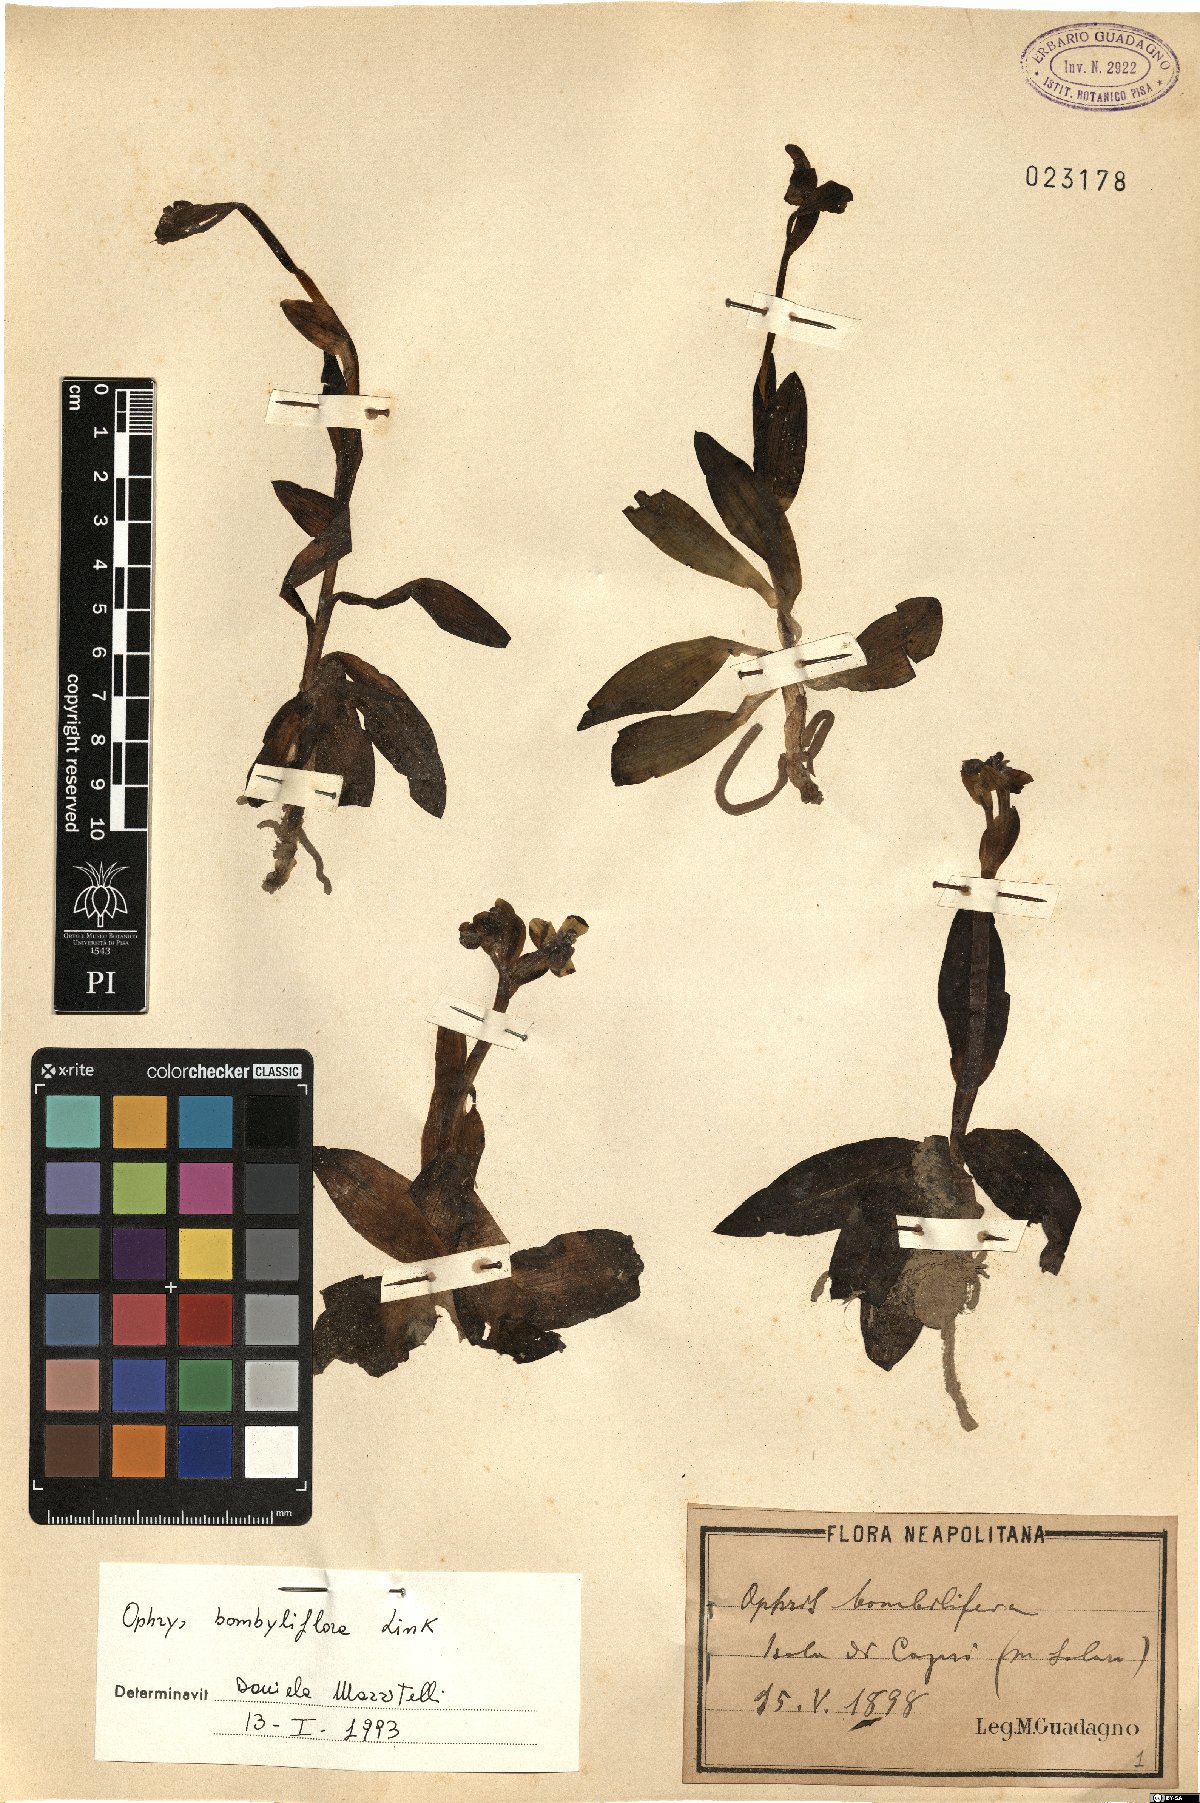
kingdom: Plantae
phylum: Tracheophyta
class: Liliopsida
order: Asparagales
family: Orchidaceae
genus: Ophrys
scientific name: Ophrys bombyliflora
